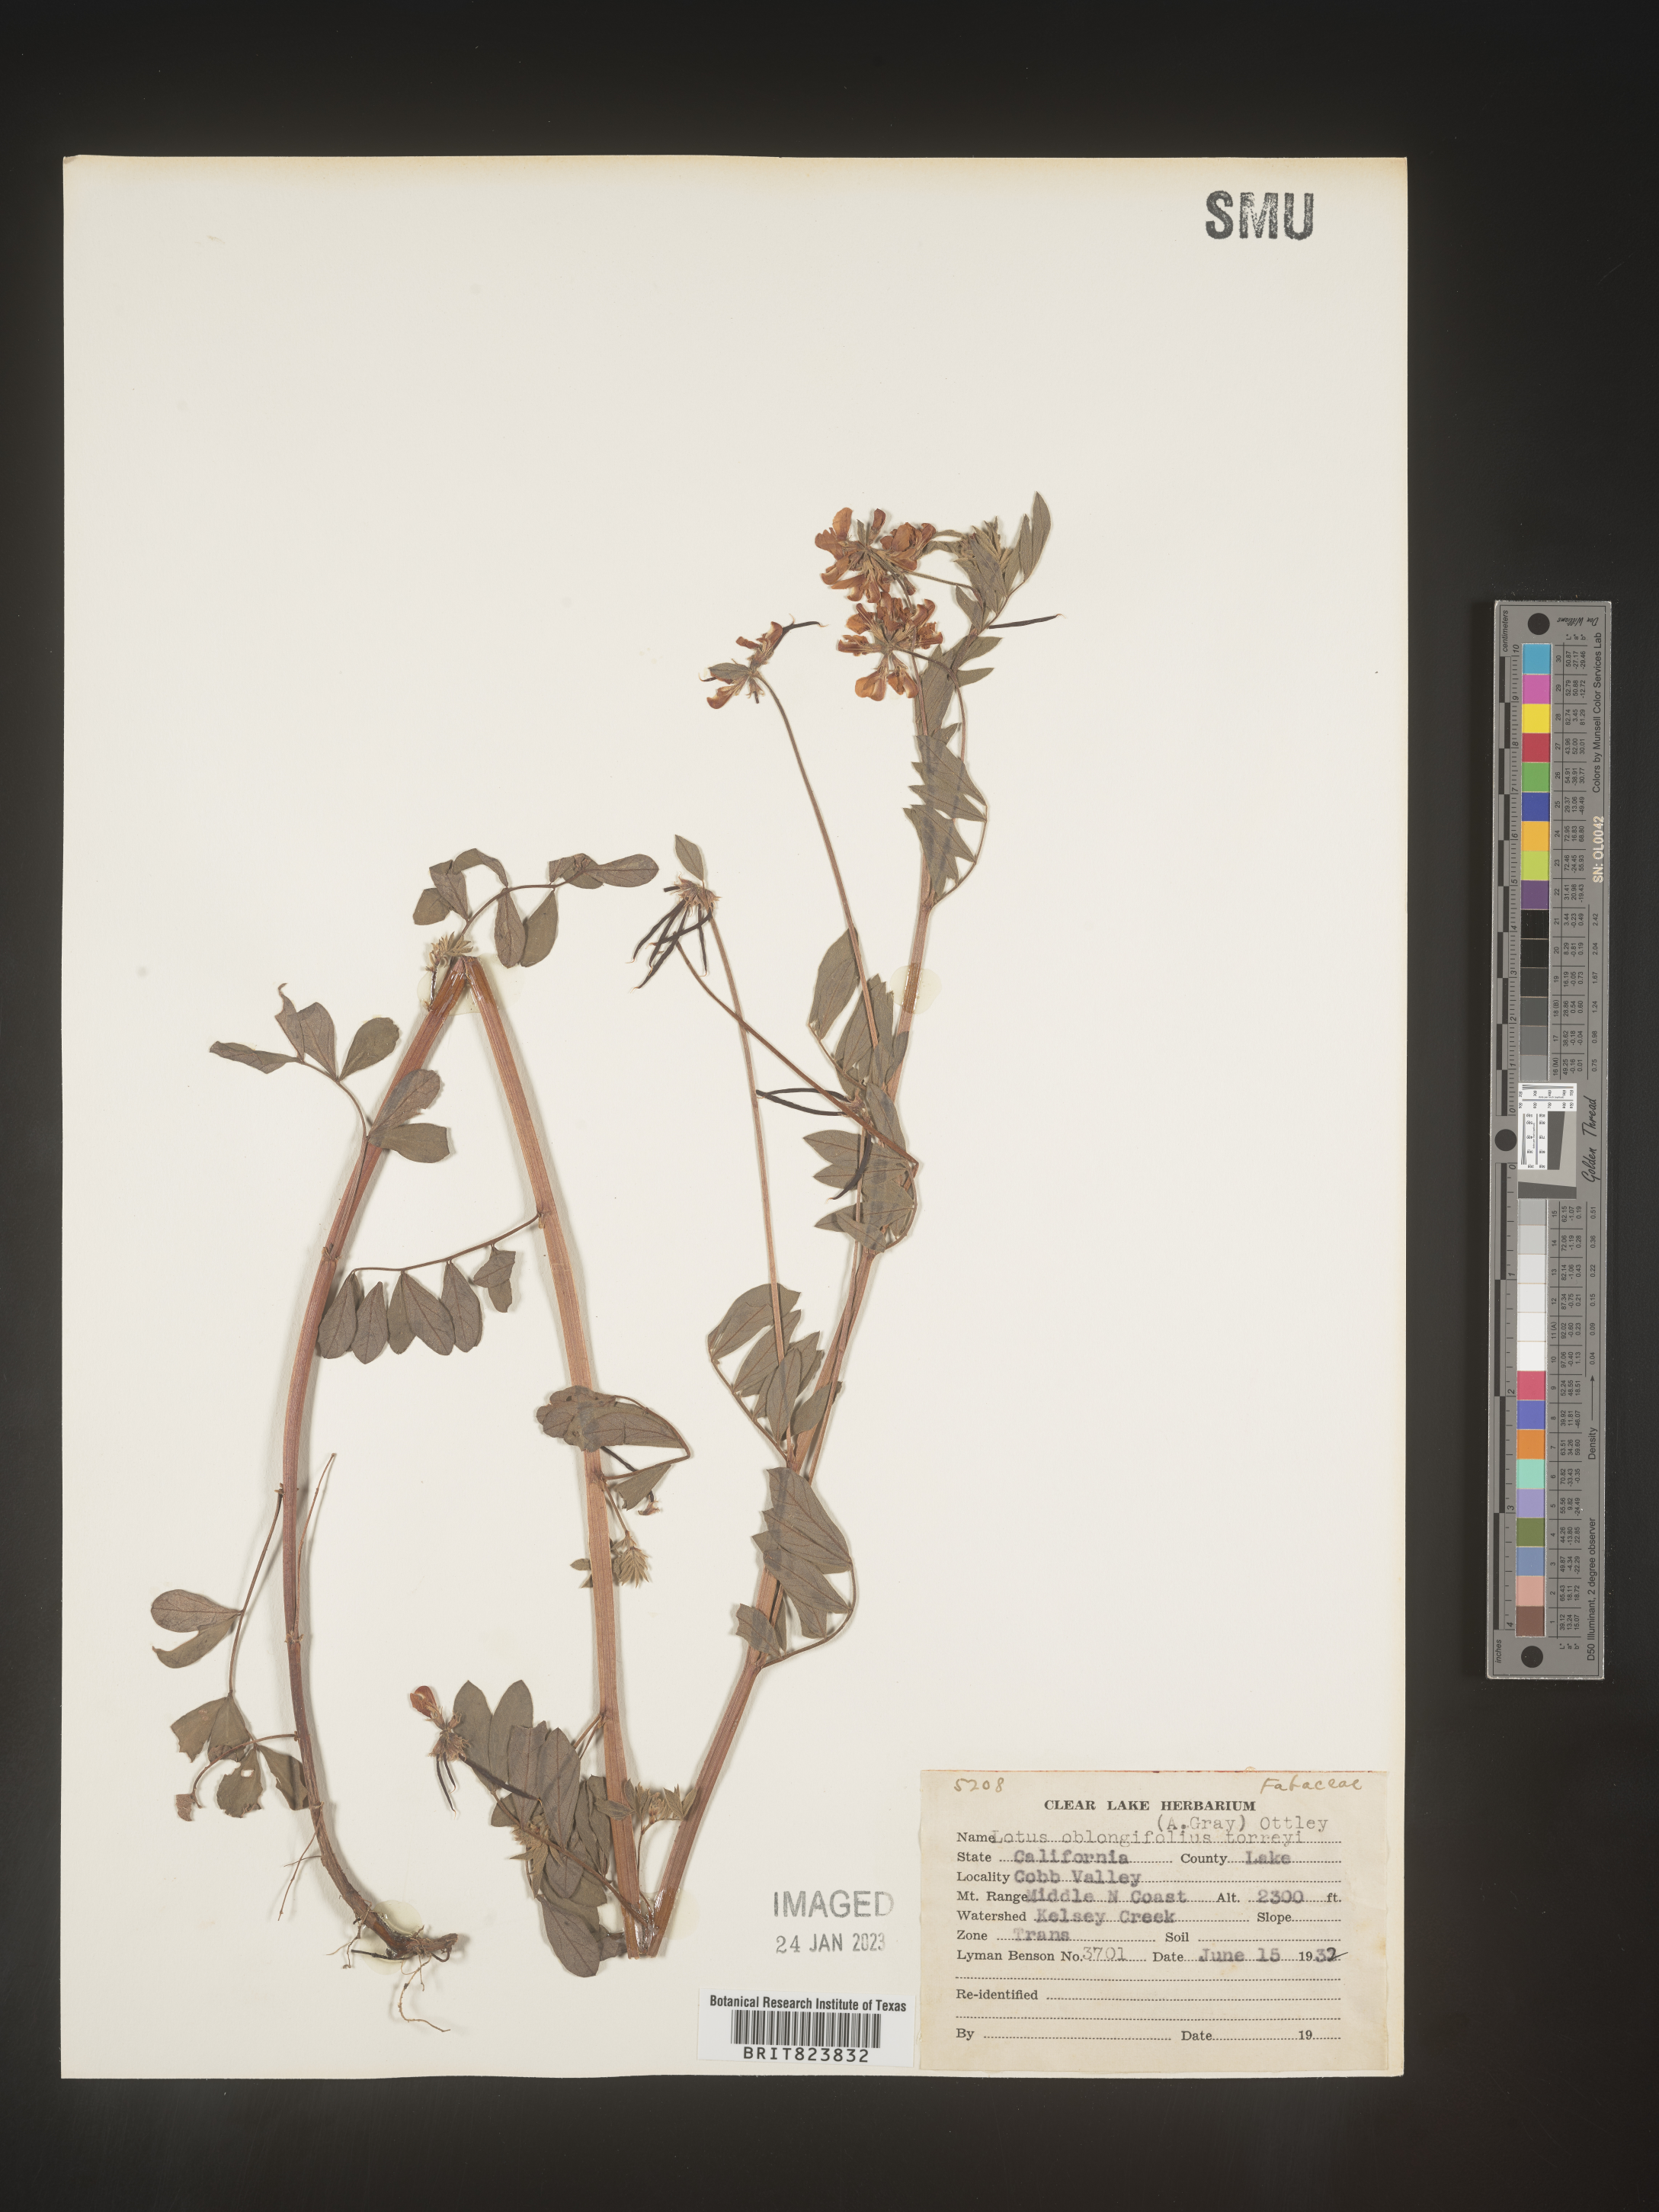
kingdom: Plantae
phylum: Tracheophyta
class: Magnoliopsida
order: Fabales
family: Fabaceae
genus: Hosackia
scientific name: Hosackia oblongifolia
